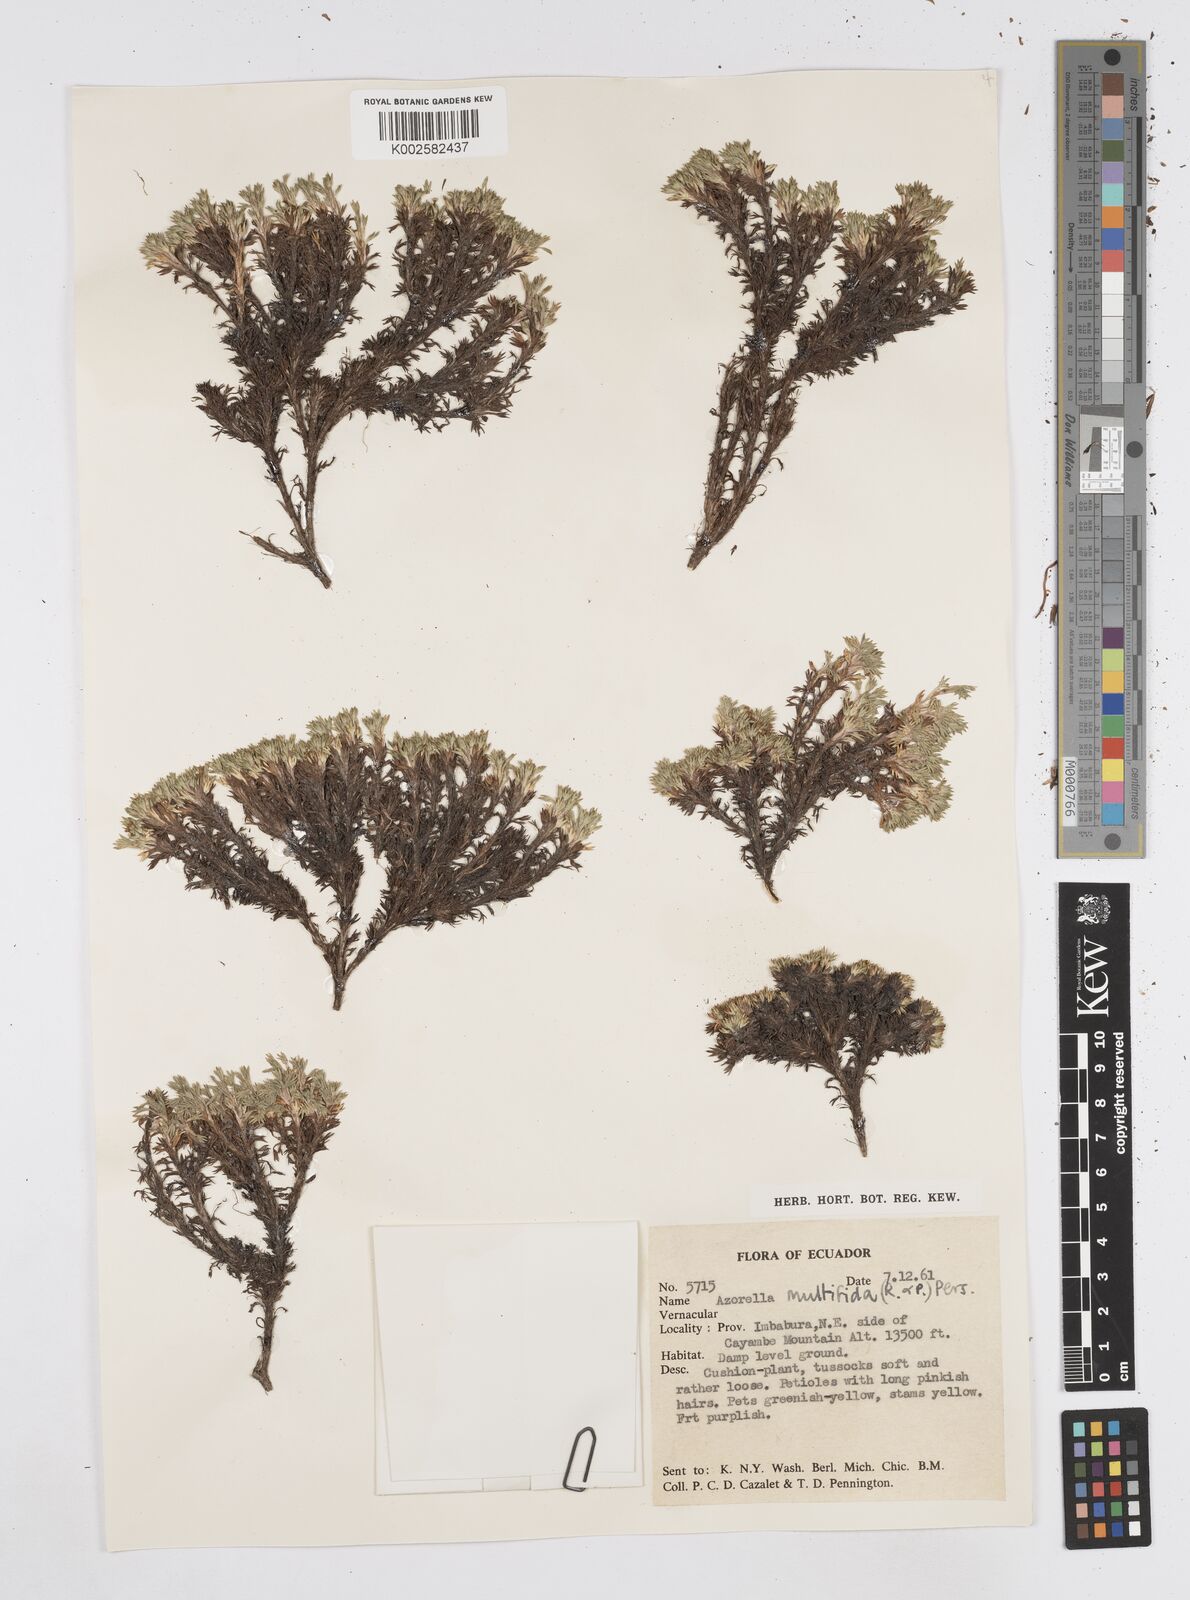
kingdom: Plantae
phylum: Tracheophyta
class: Magnoliopsida
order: Apiales
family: Apiaceae
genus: Azorella
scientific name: Azorella multifida
